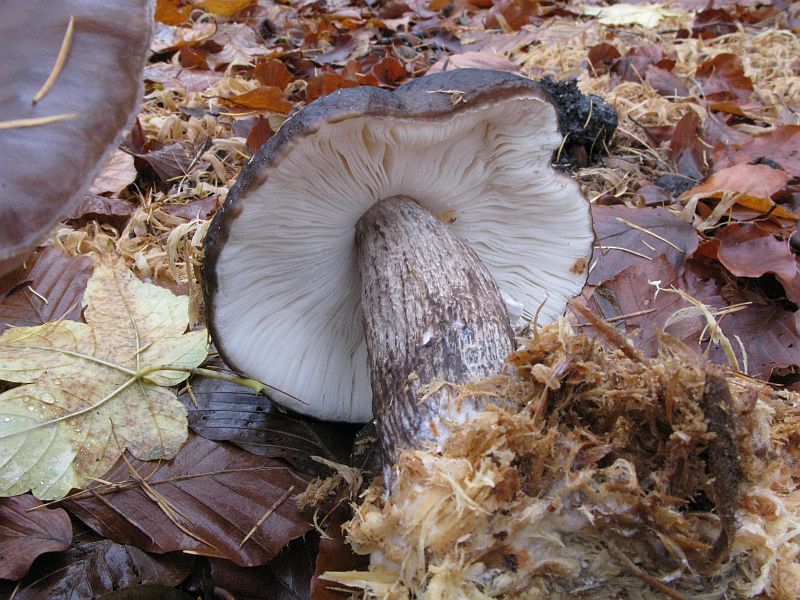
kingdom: Fungi
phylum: Basidiomycota
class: Agaricomycetes
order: Agaricales
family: Pluteaceae
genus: Pluteus
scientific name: Pluteus cervinus
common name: sodfarvet skærmhat
